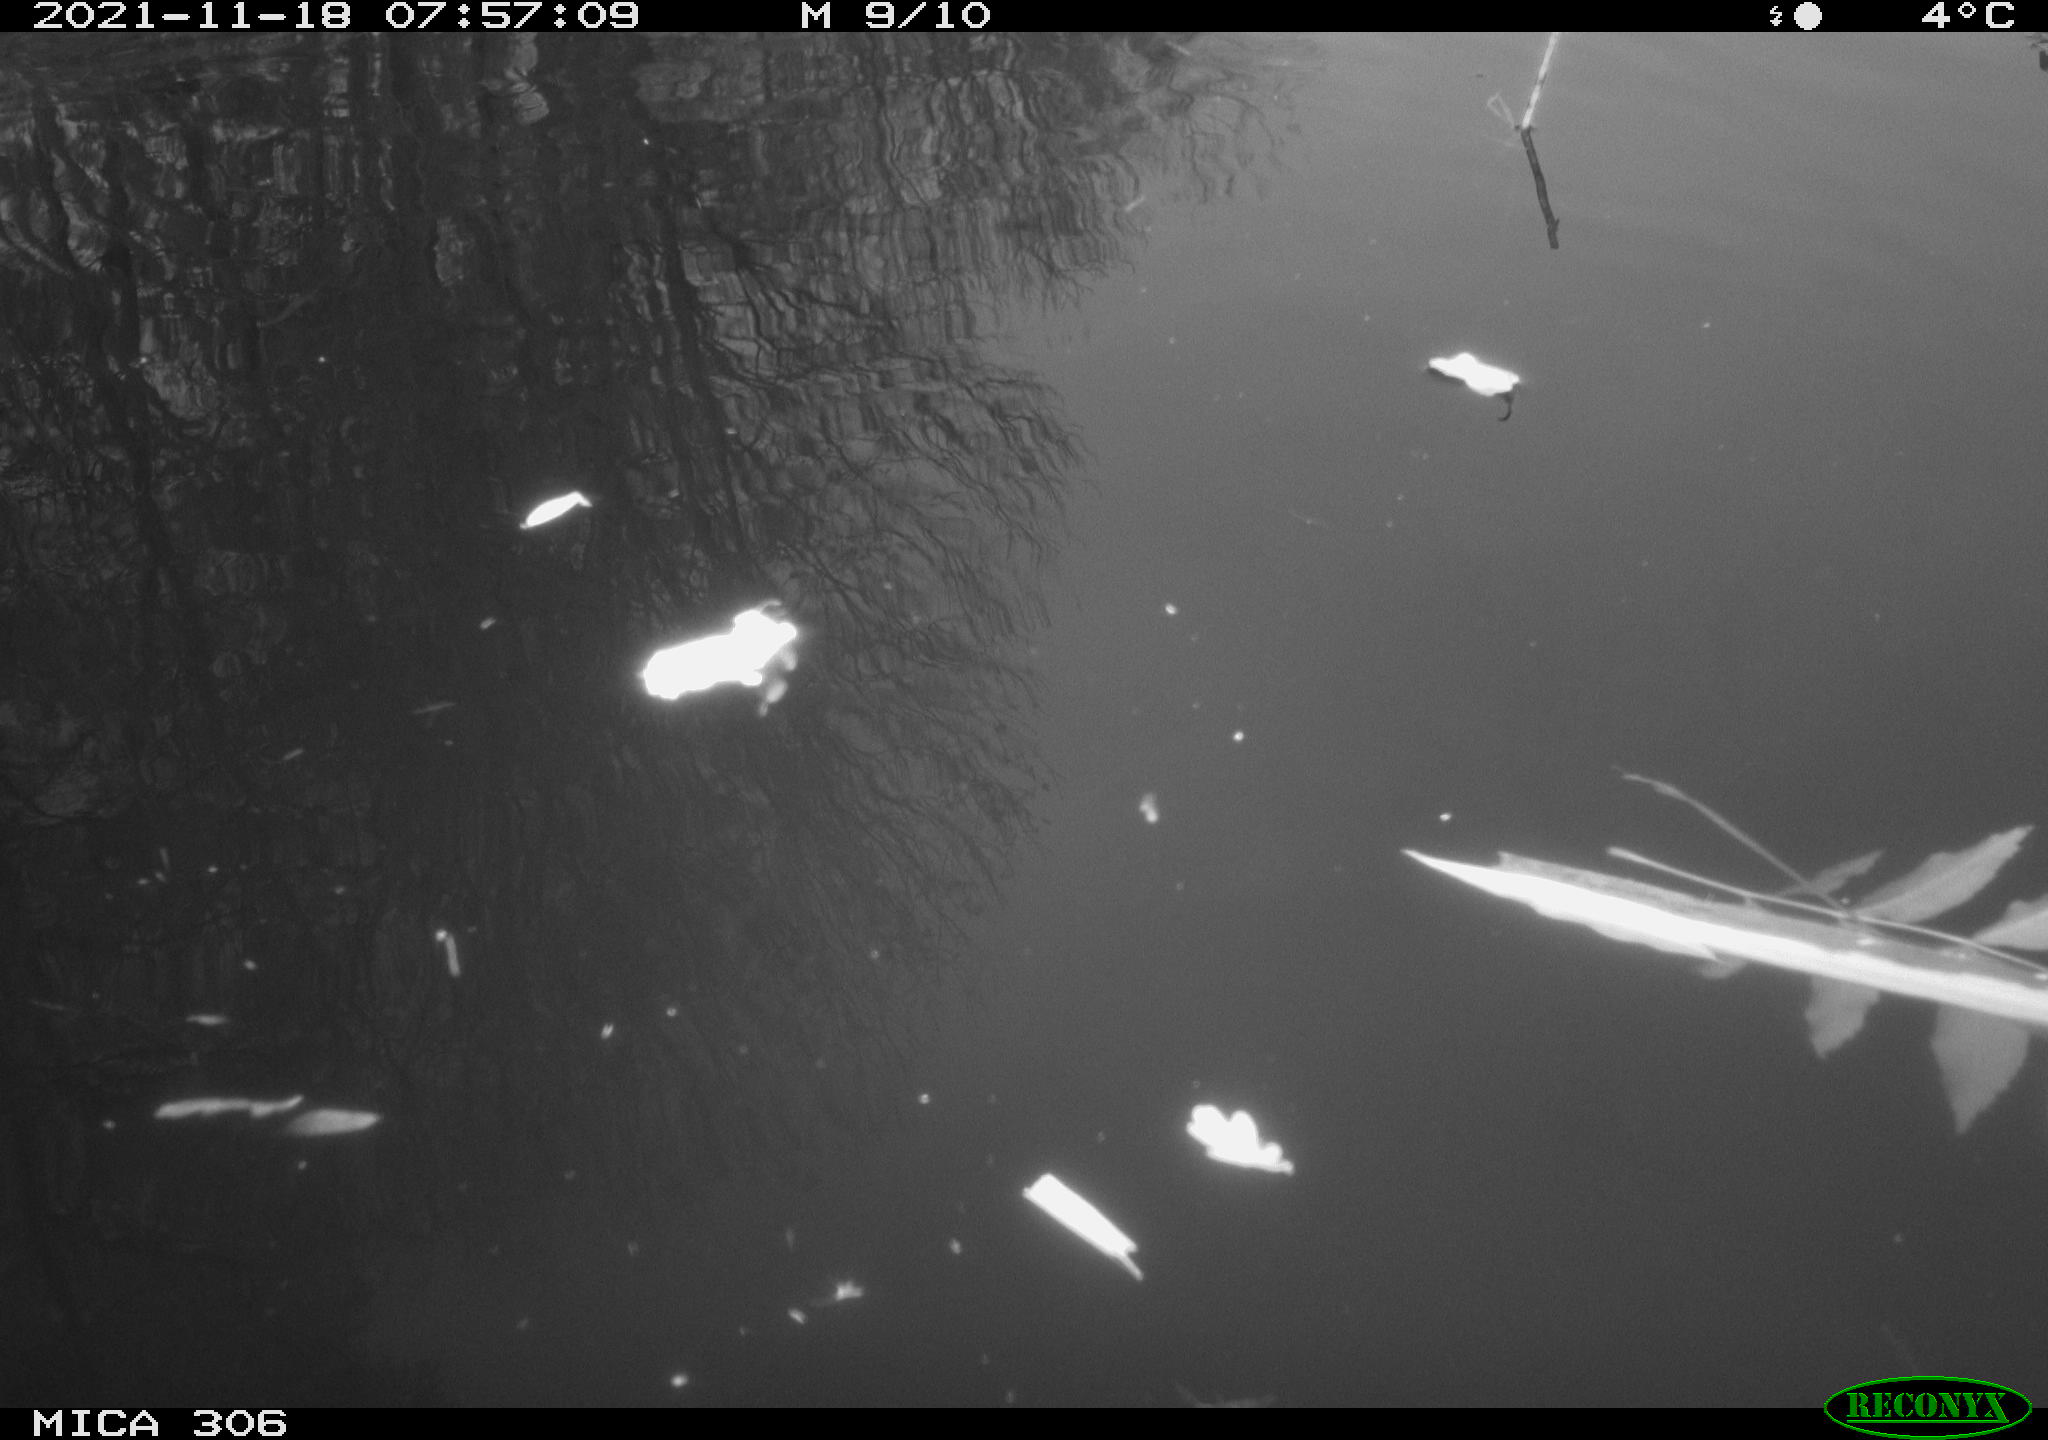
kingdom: Animalia
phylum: Chordata
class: Aves
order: Gruiformes
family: Rallidae
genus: Fulica
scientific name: Fulica atra
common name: Eurasian coot
